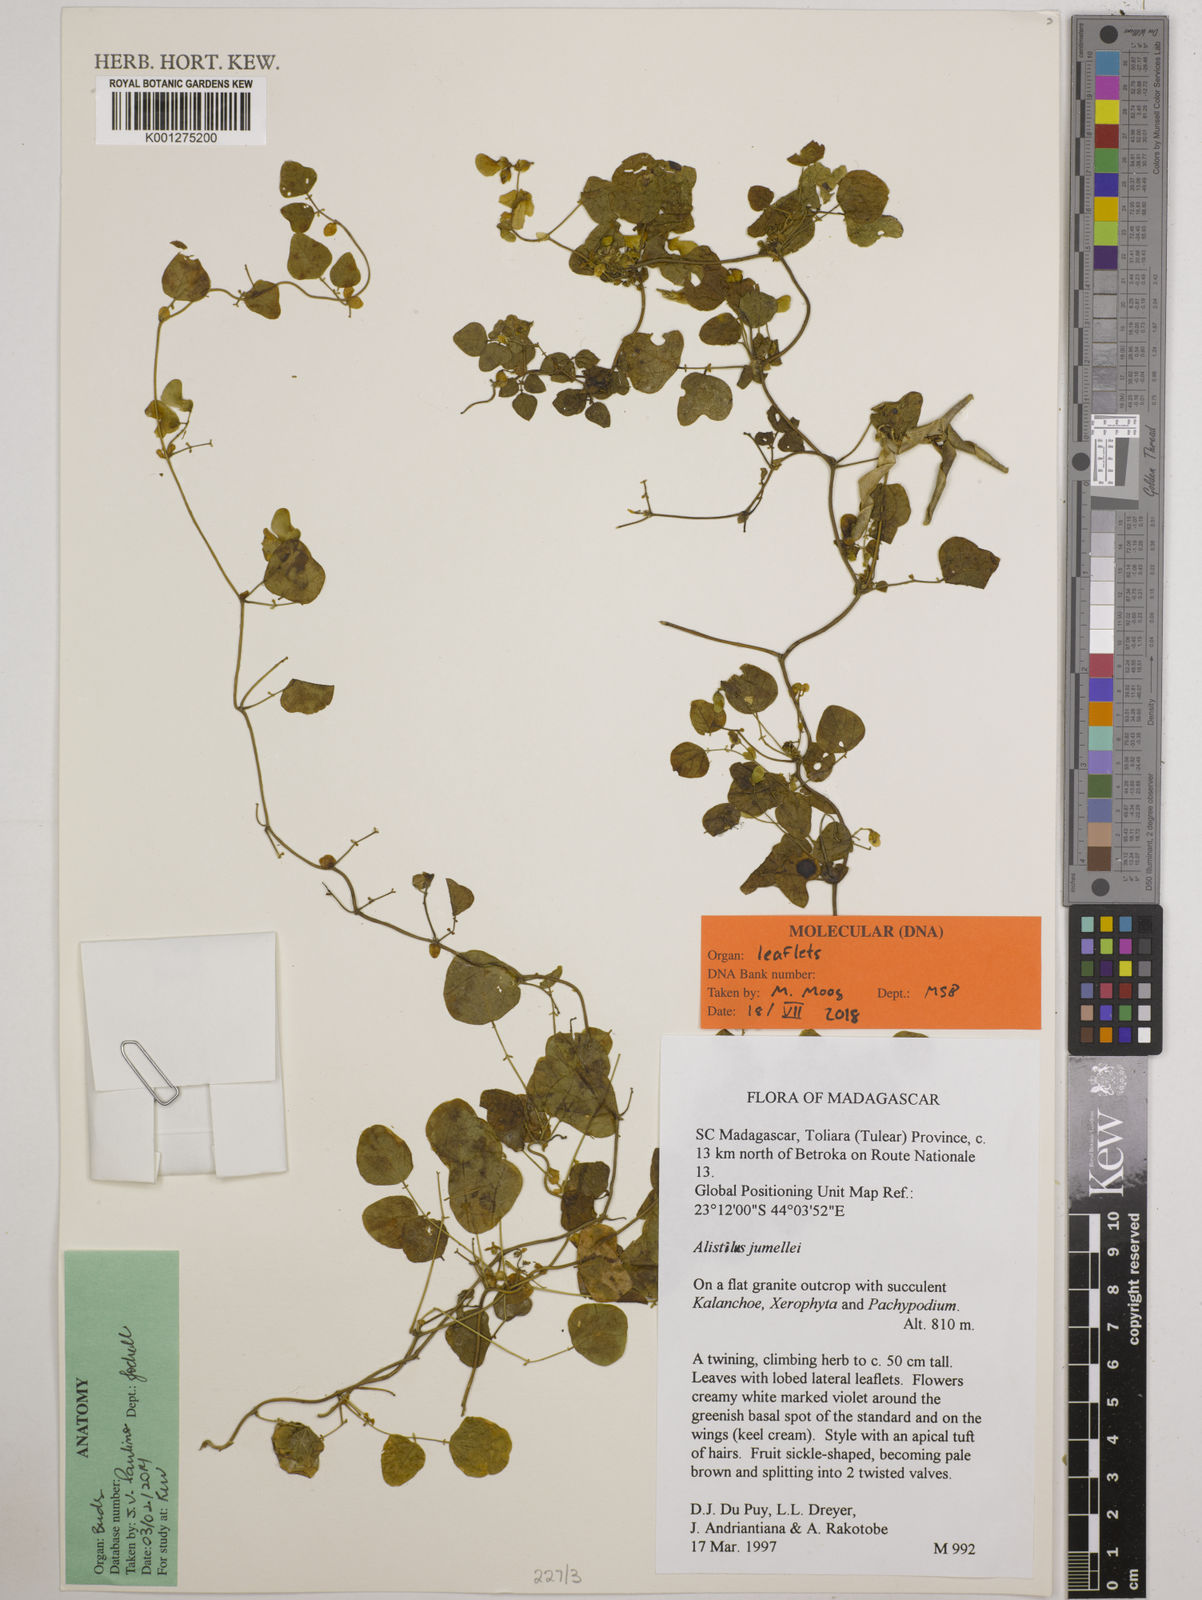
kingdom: Plantae
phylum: Tracheophyta
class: Magnoliopsida
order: Fabales
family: Fabaceae
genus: Alistilus
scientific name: Alistilus jumellei
